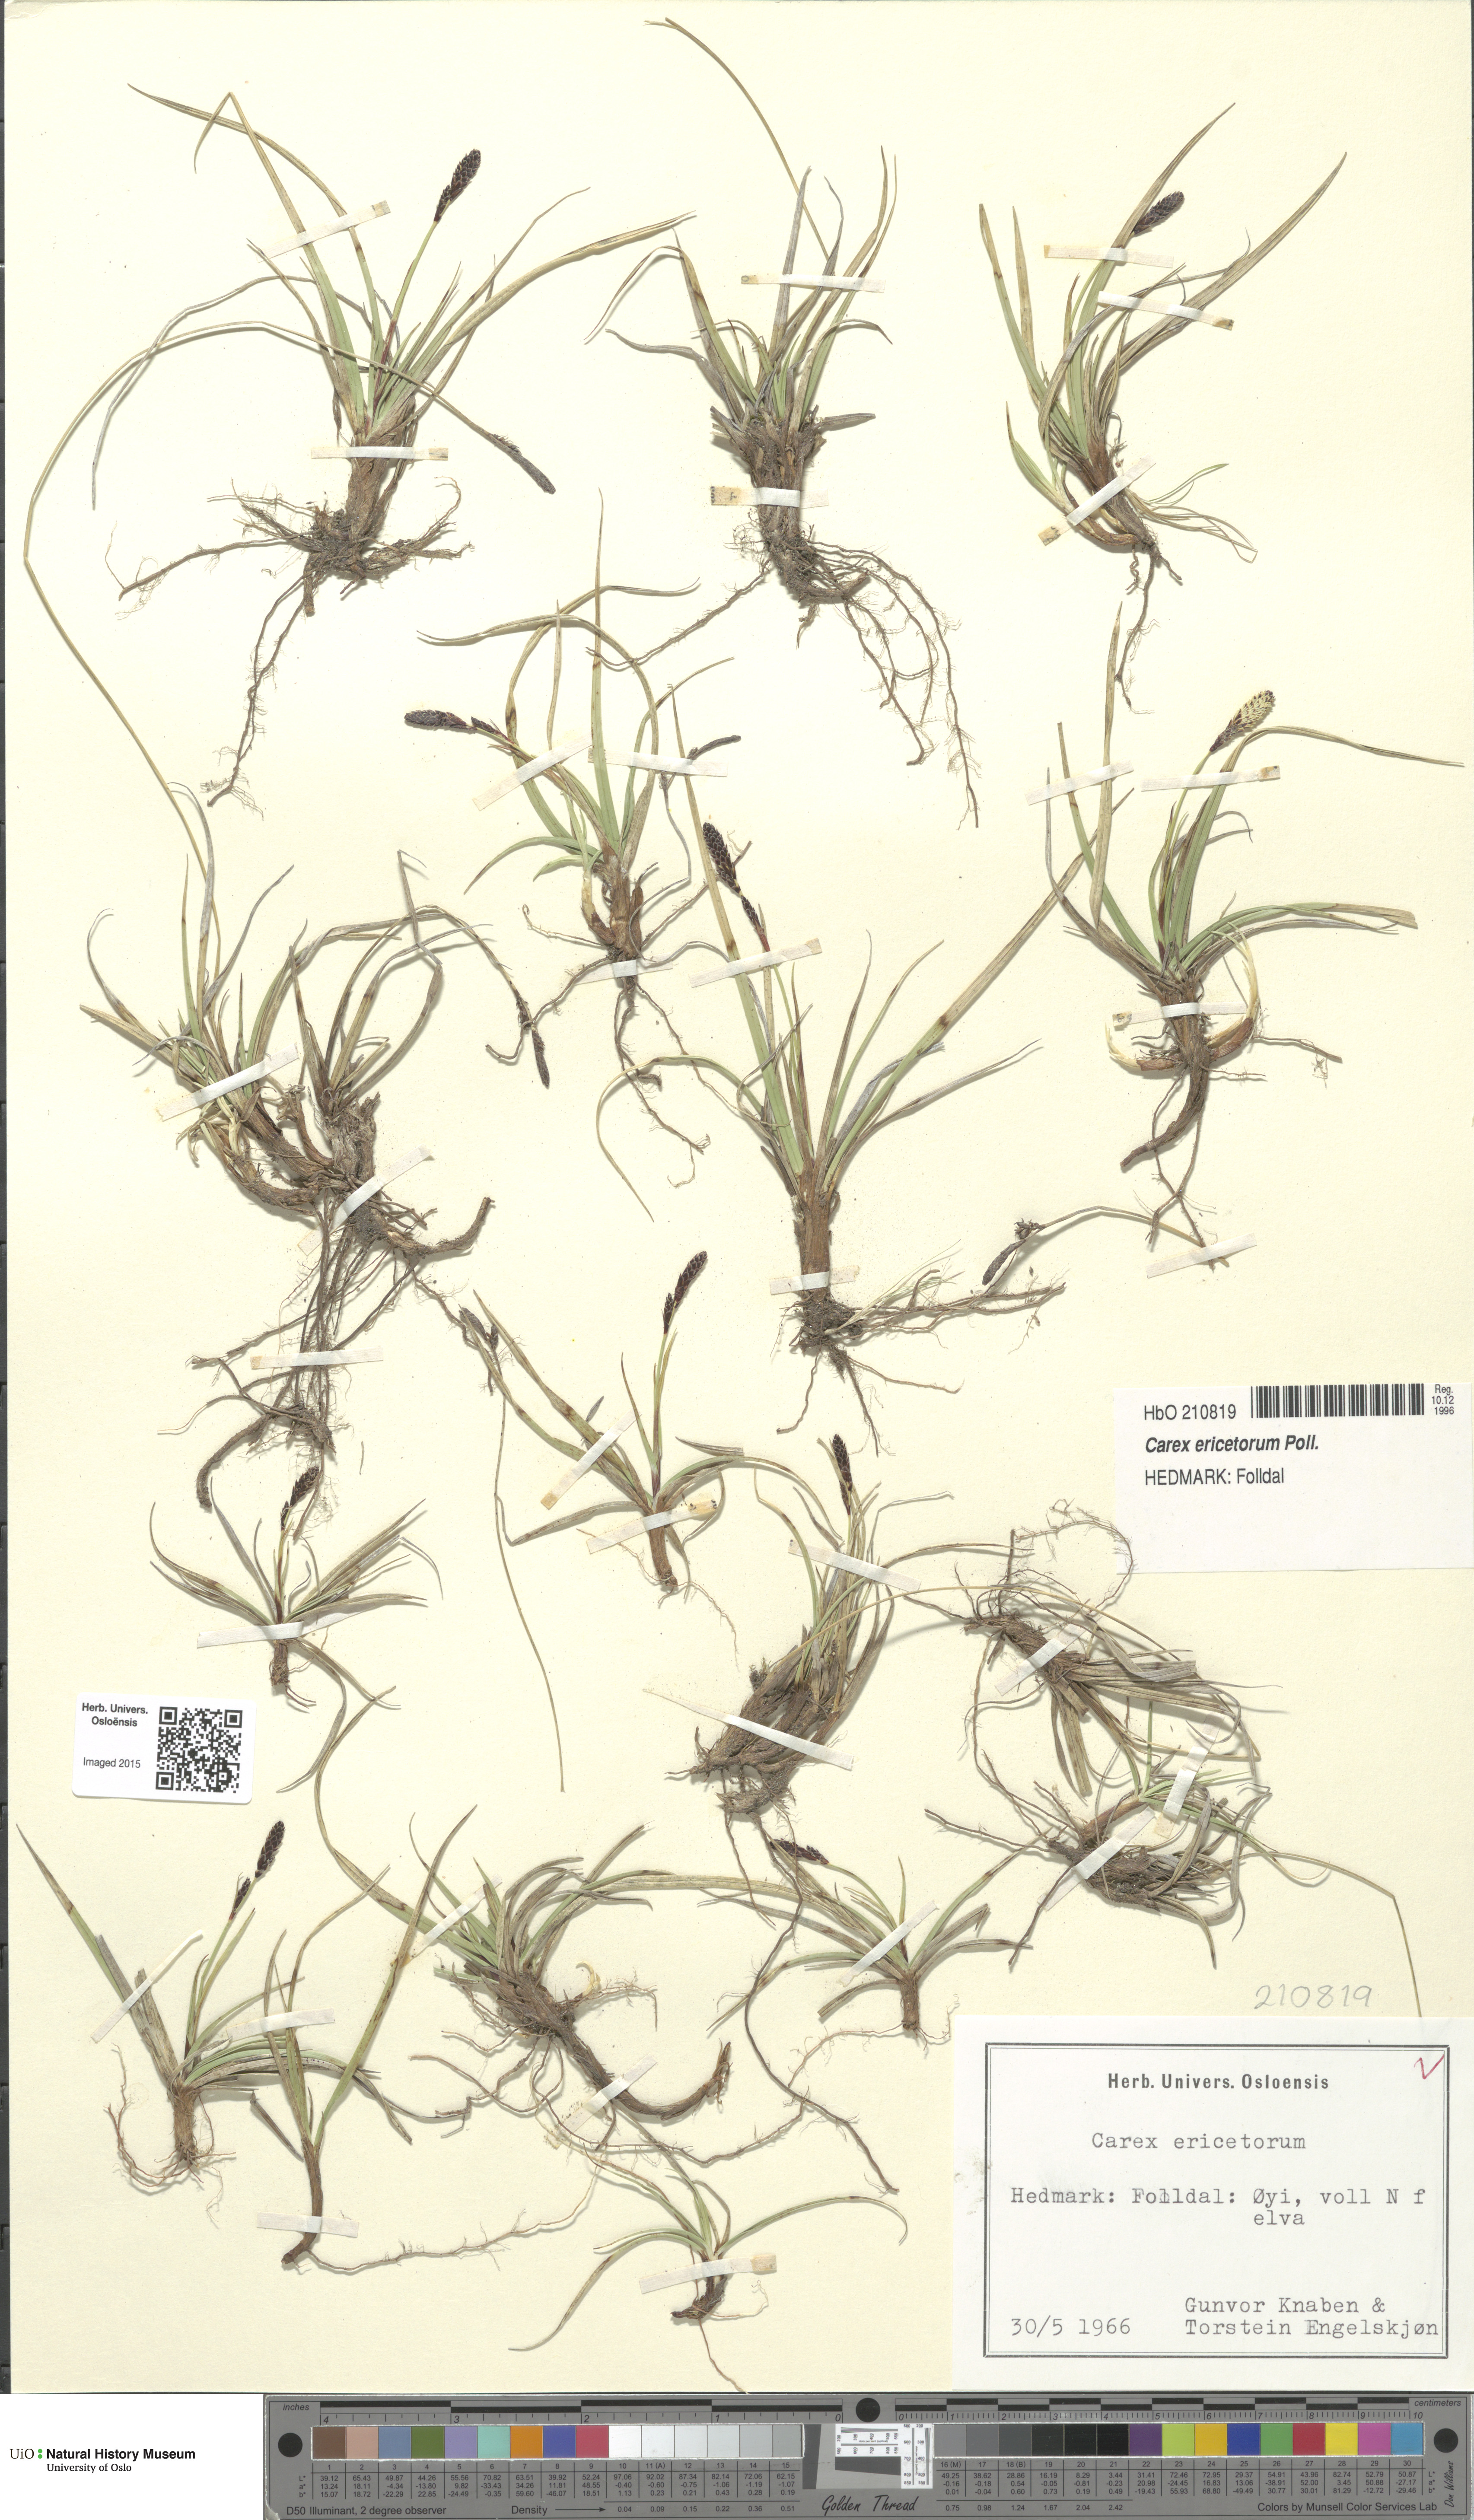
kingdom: Plantae
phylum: Tracheophyta
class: Liliopsida
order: Poales
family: Cyperaceae
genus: Carex
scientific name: Carex ericetorum
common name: Rare spring-sedge
